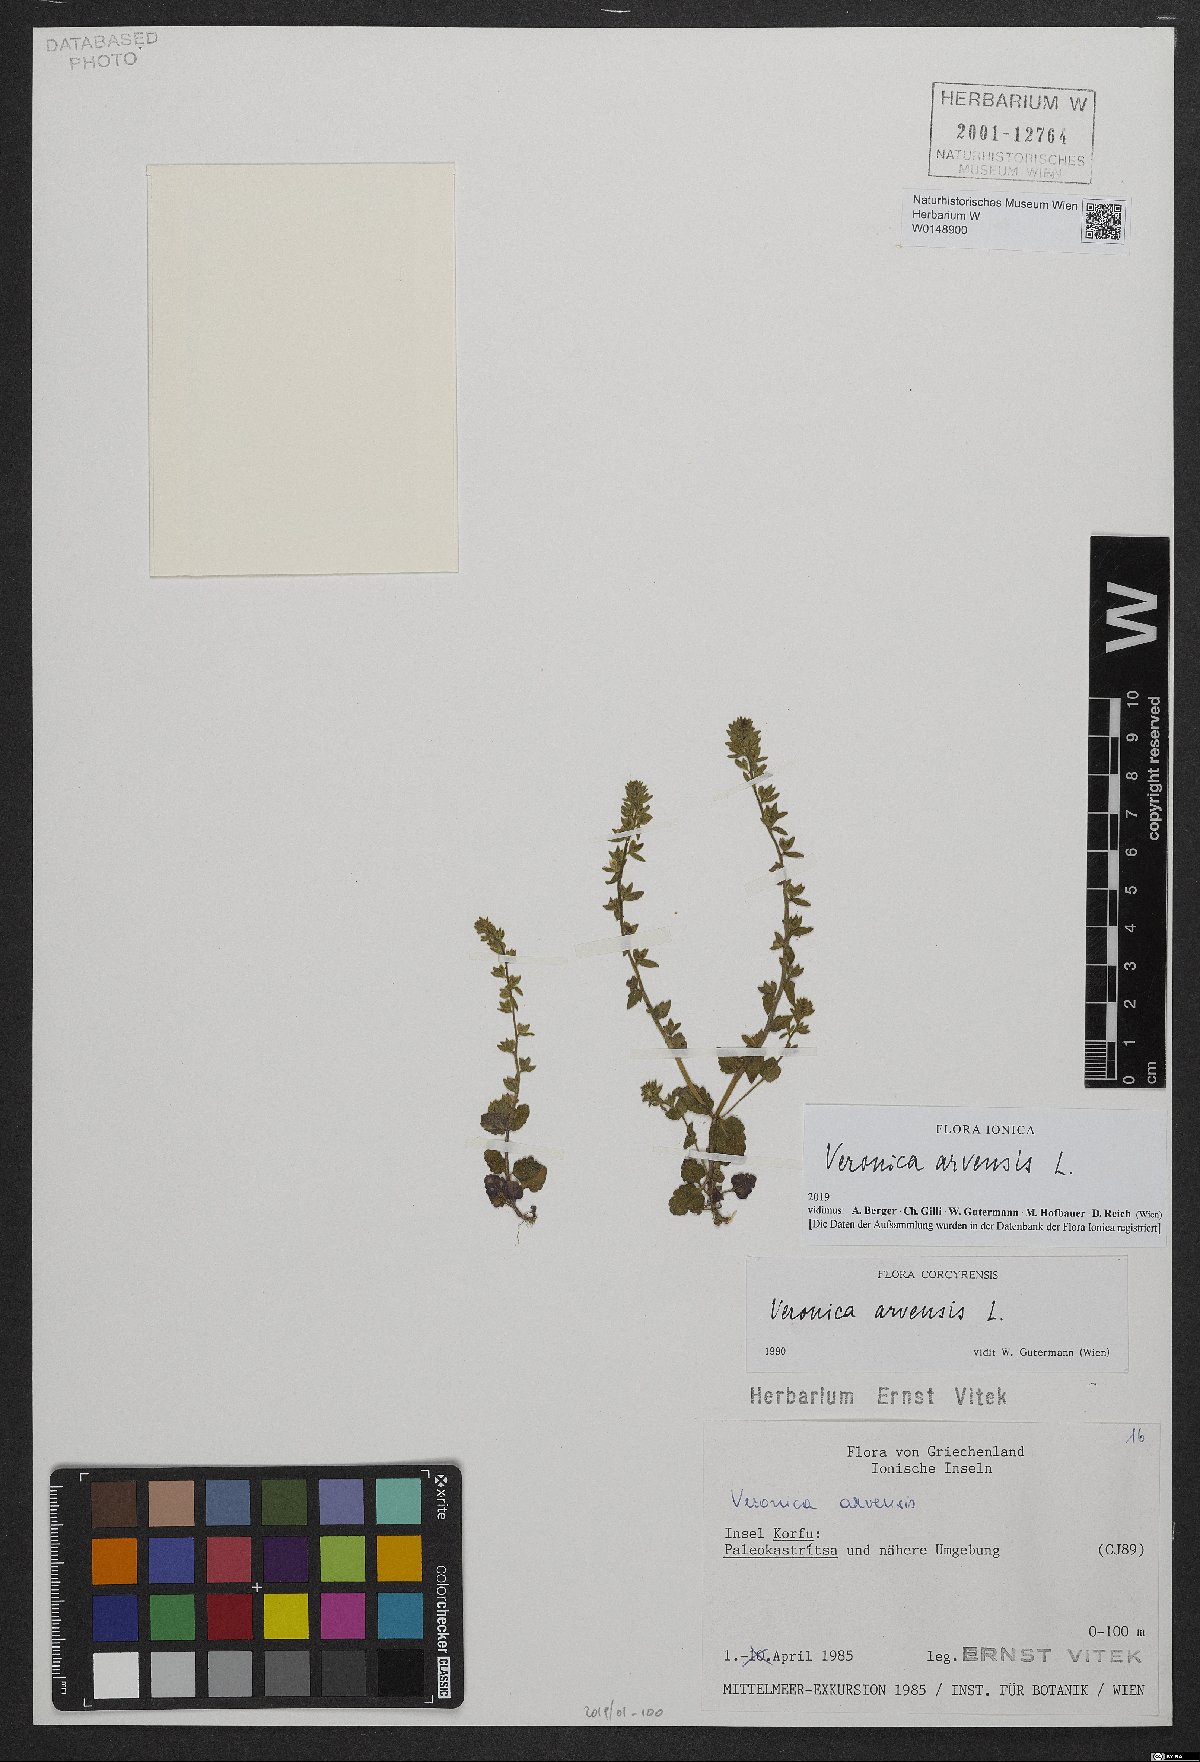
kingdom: Plantae
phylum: Tracheophyta
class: Magnoliopsida
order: Lamiales
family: Plantaginaceae
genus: Veronica
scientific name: Veronica arvensis
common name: Corn speedwell
